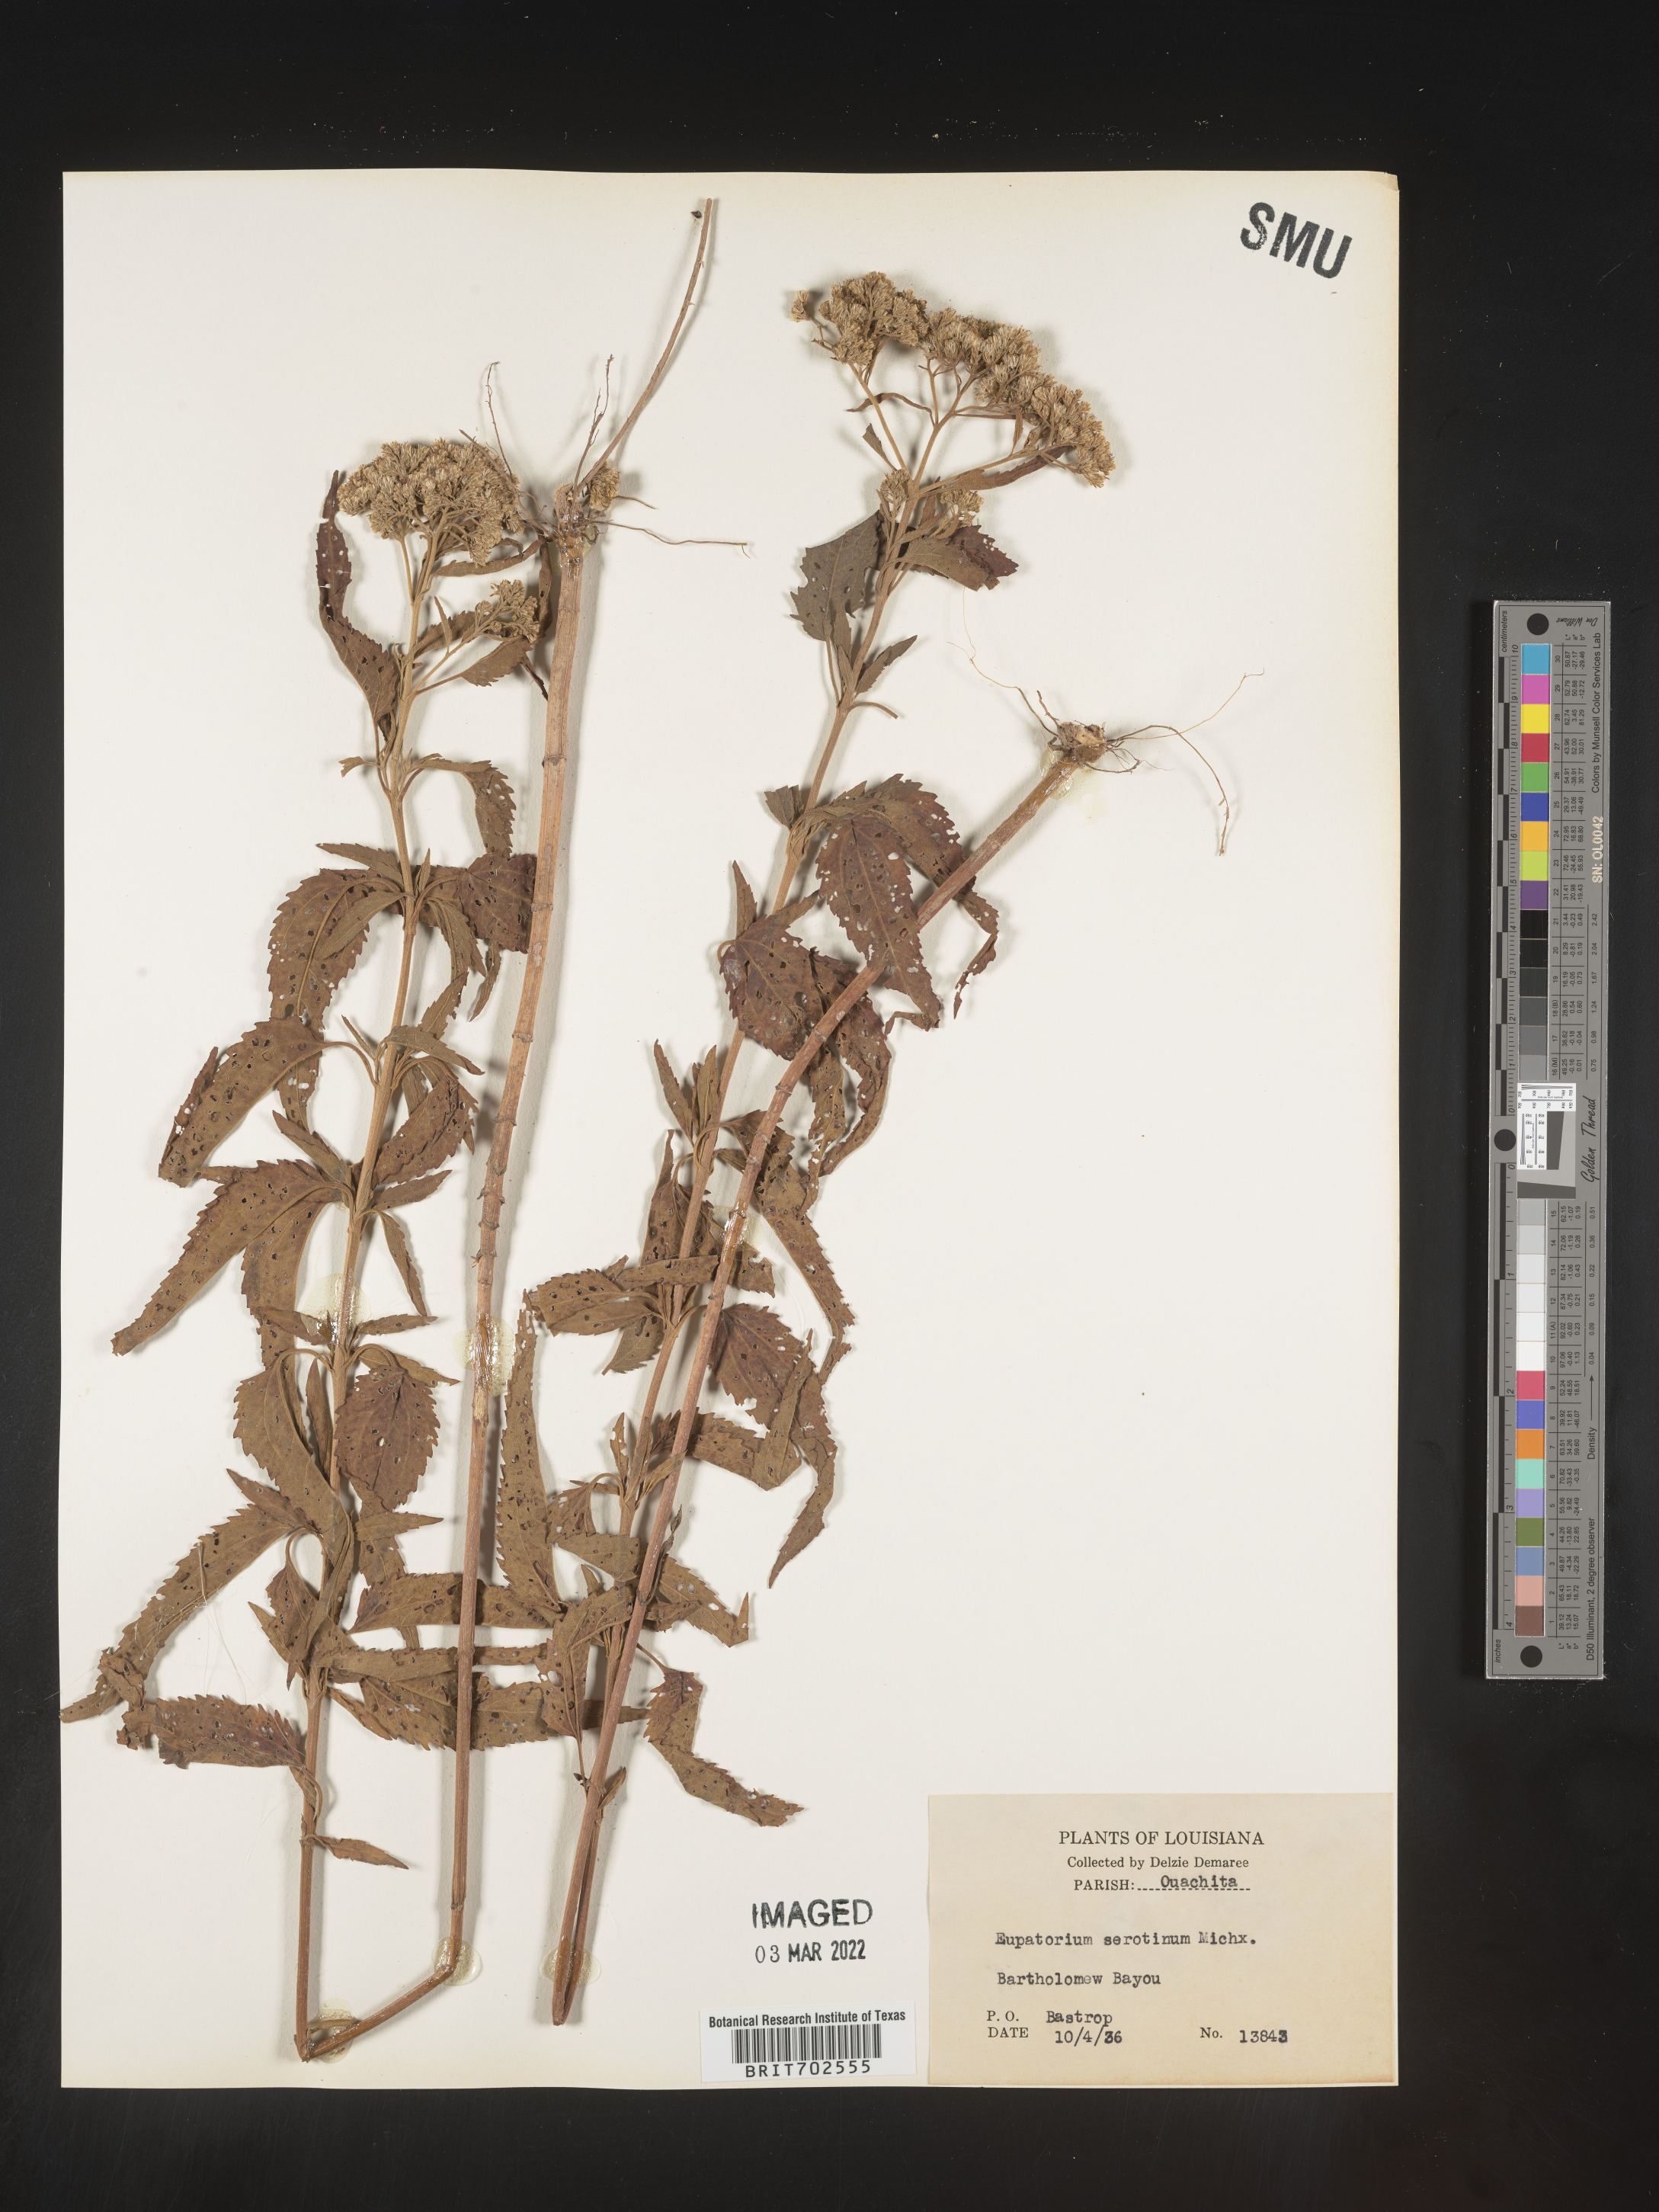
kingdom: Plantae
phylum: Tracheophyta
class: Magnoliopsida
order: Asterales
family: Asteraceae
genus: Eupatorium
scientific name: Eupatorium serotinum
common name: Late boneset
